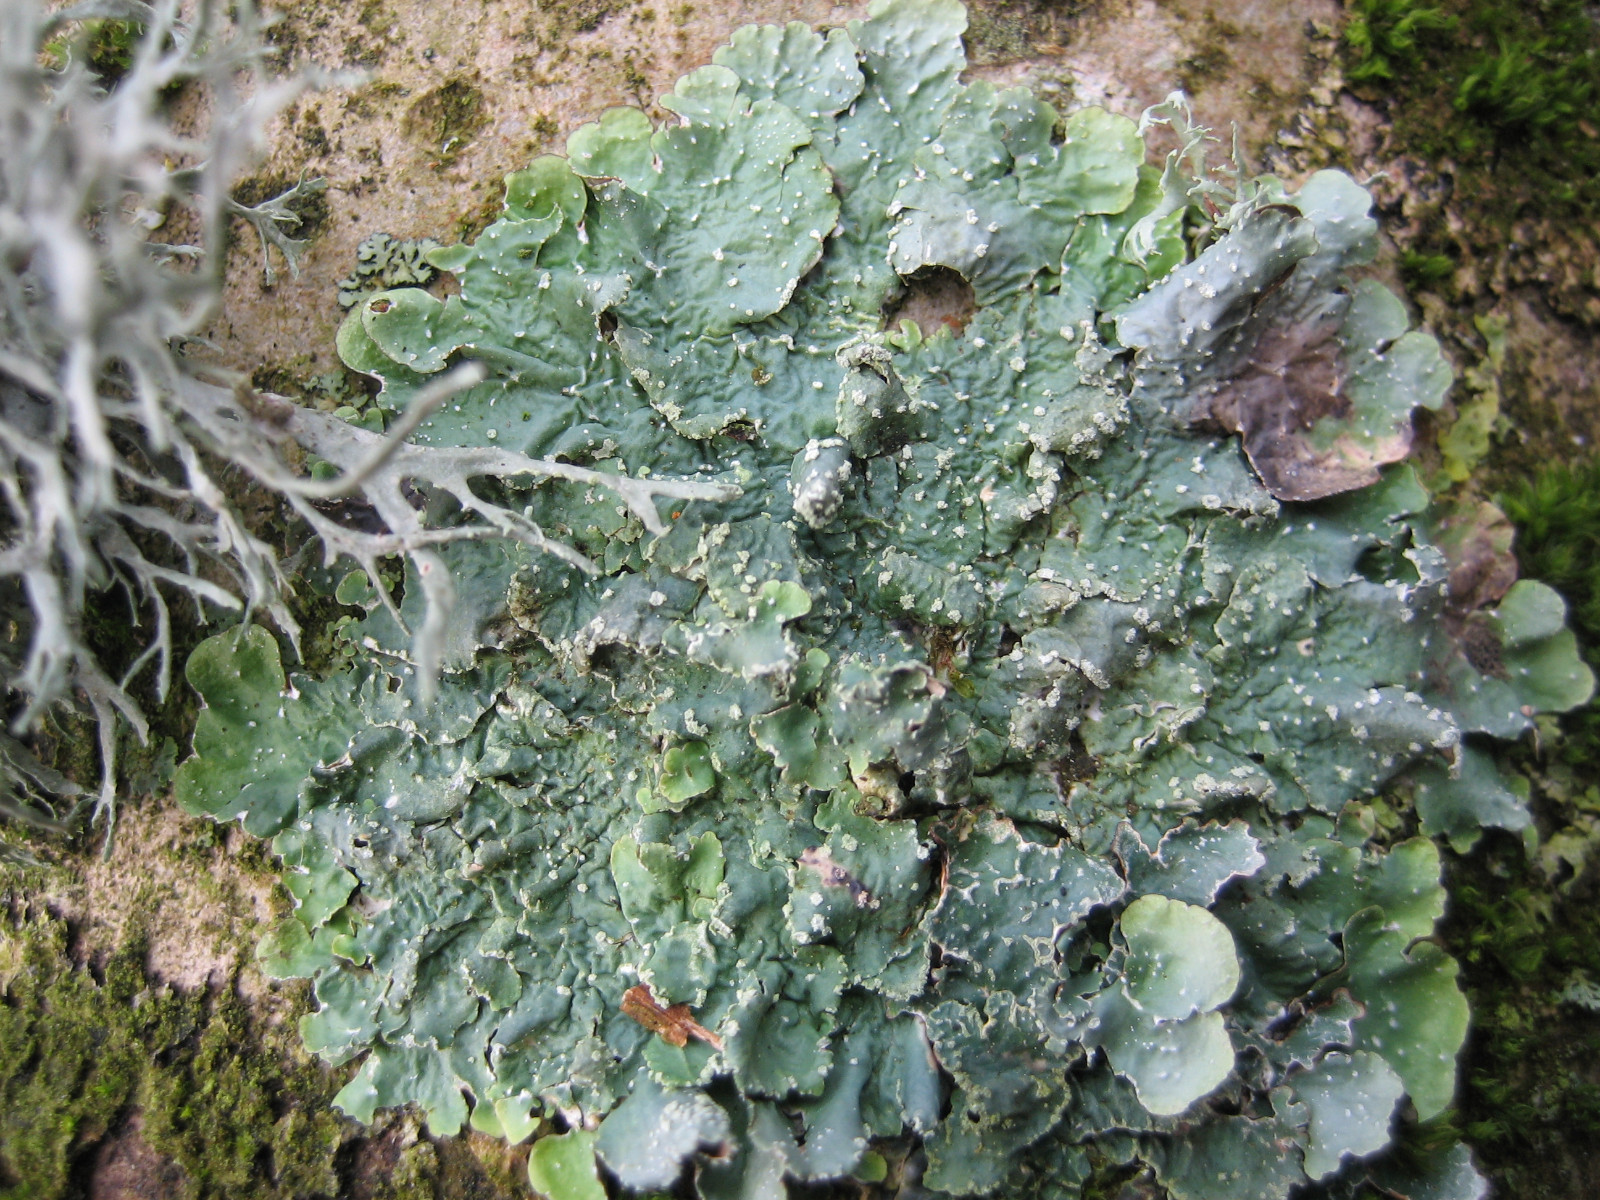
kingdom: Fungi
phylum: Ascomycota
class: Lecanoromycetes
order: Lecanorales
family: Parmeliaceae
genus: Punctelia
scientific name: Punctelia subrudecta
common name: punkt-skållav
